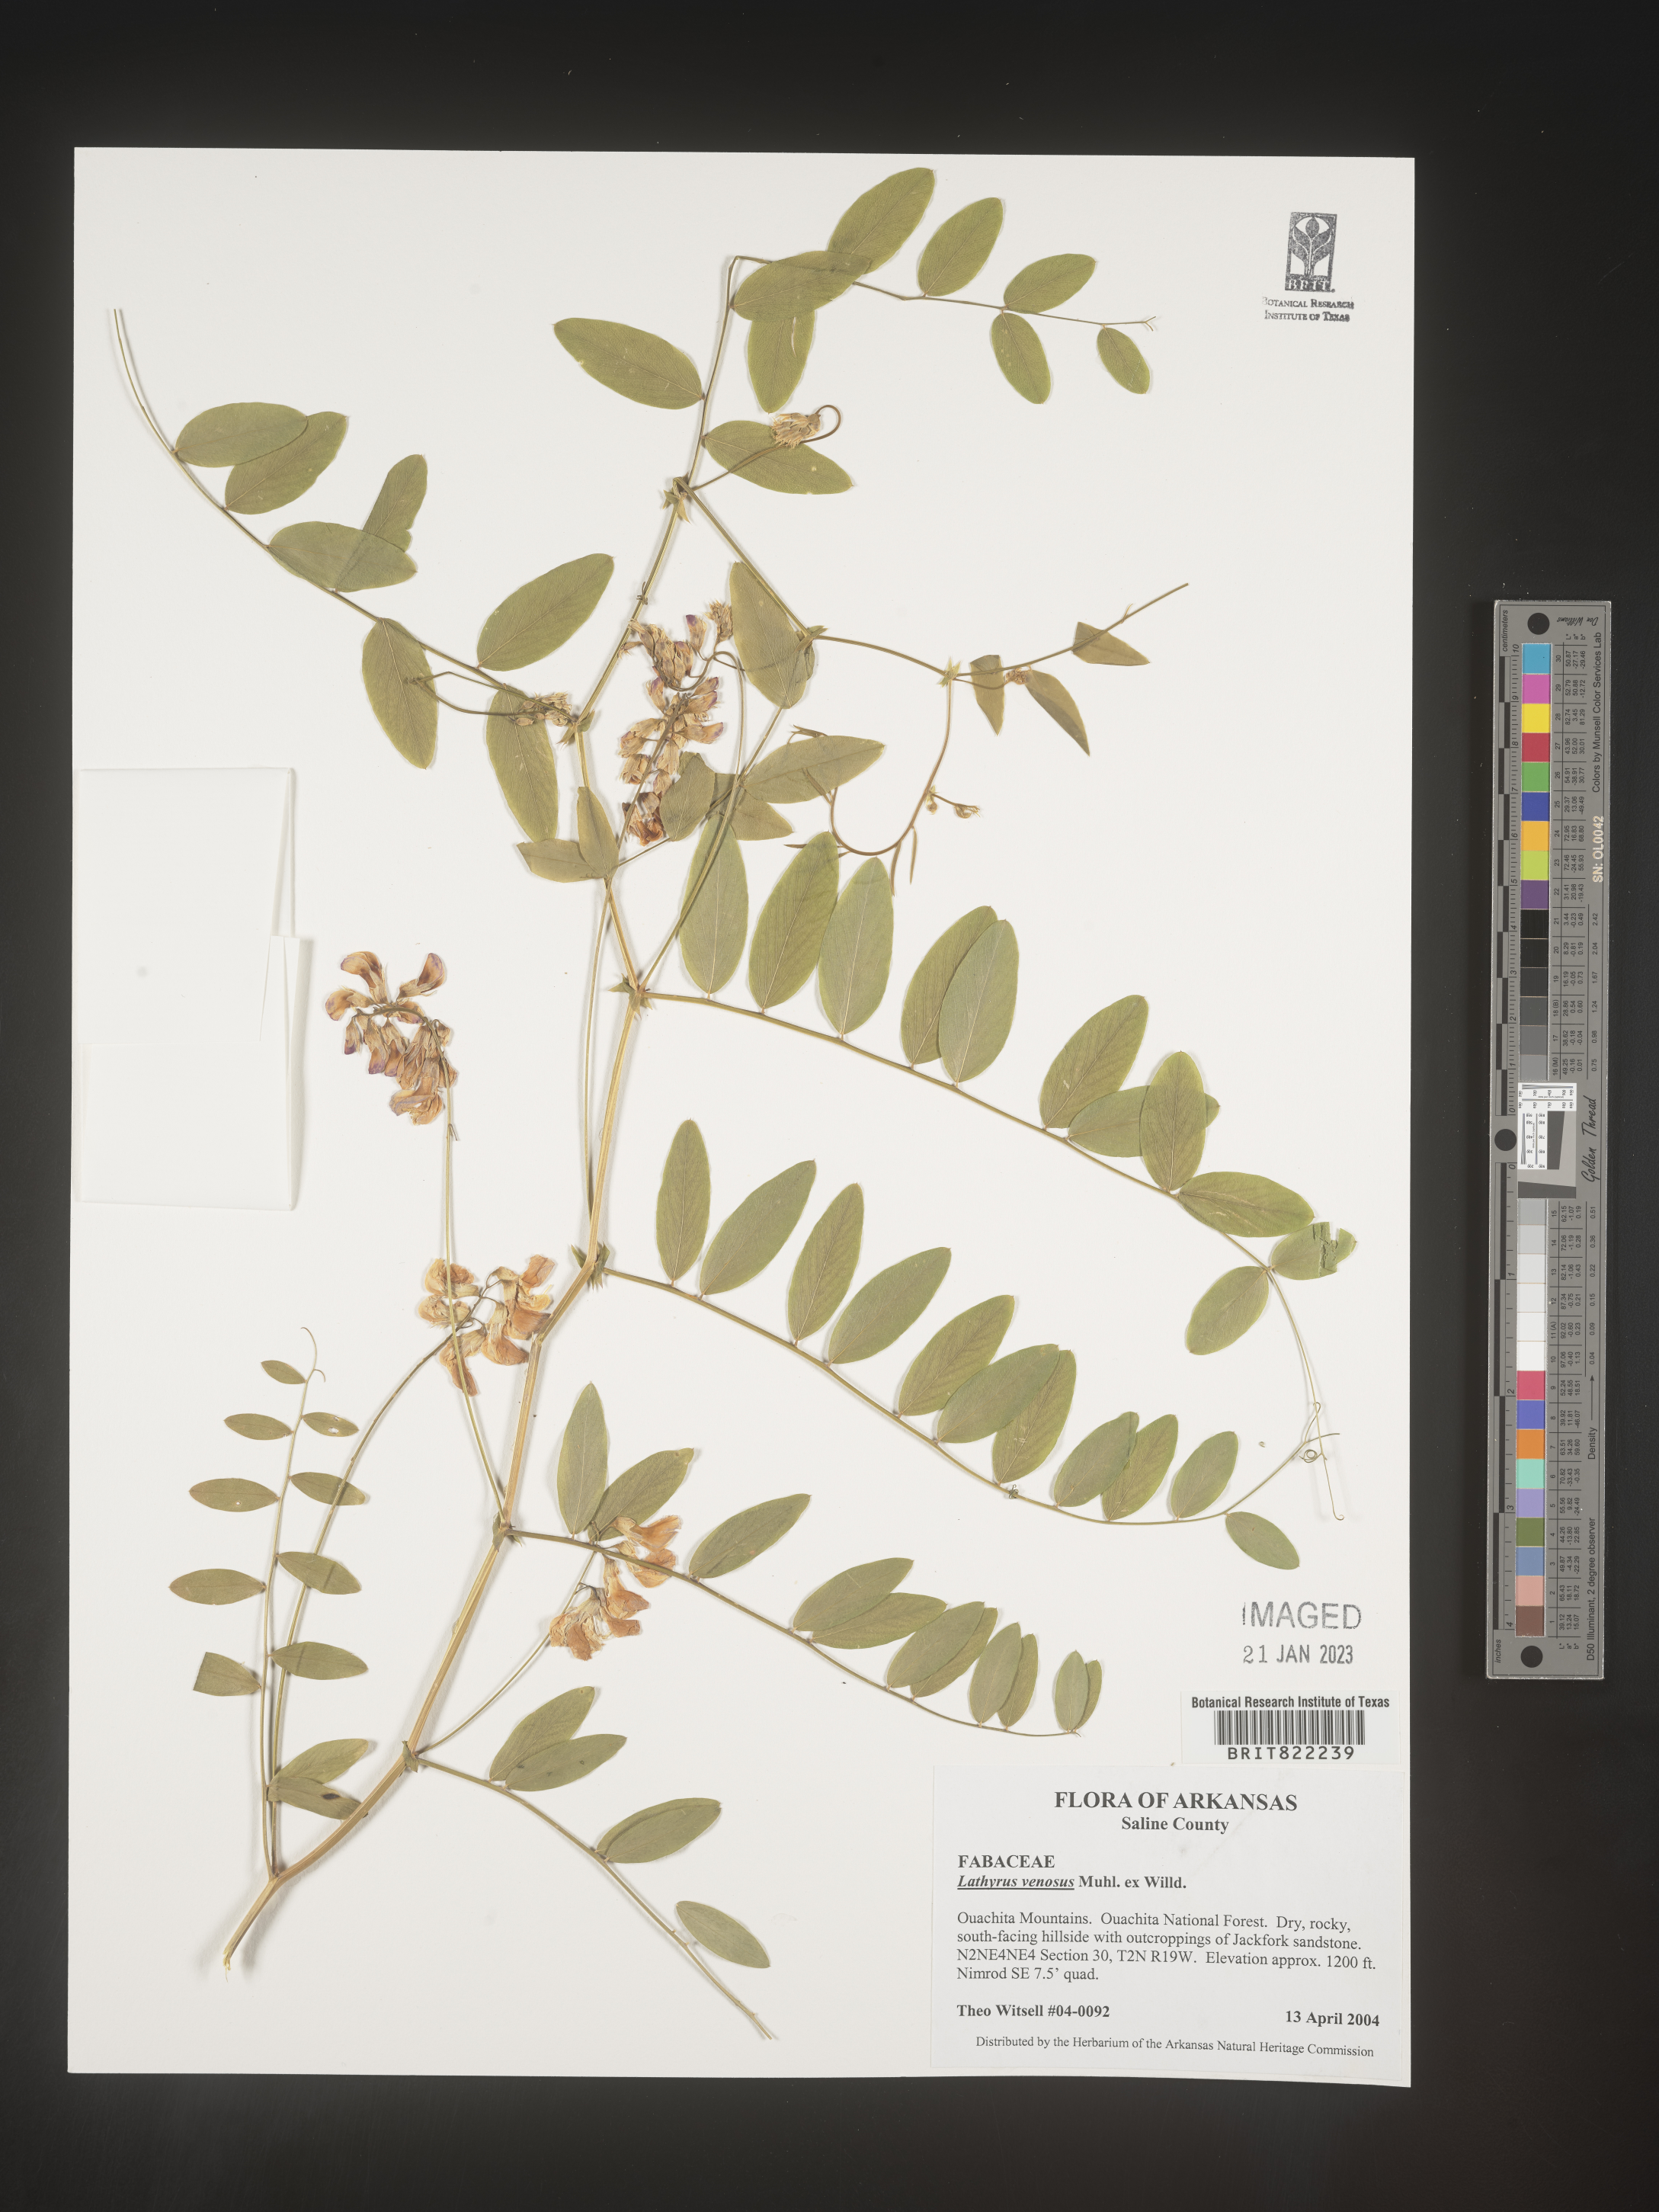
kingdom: Plantae
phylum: Tracheophyta
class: Magnoliopsida
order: Fabales
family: Fabaceae
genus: Lathyrus
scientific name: Lathyrus venosus
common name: Forest-pea
